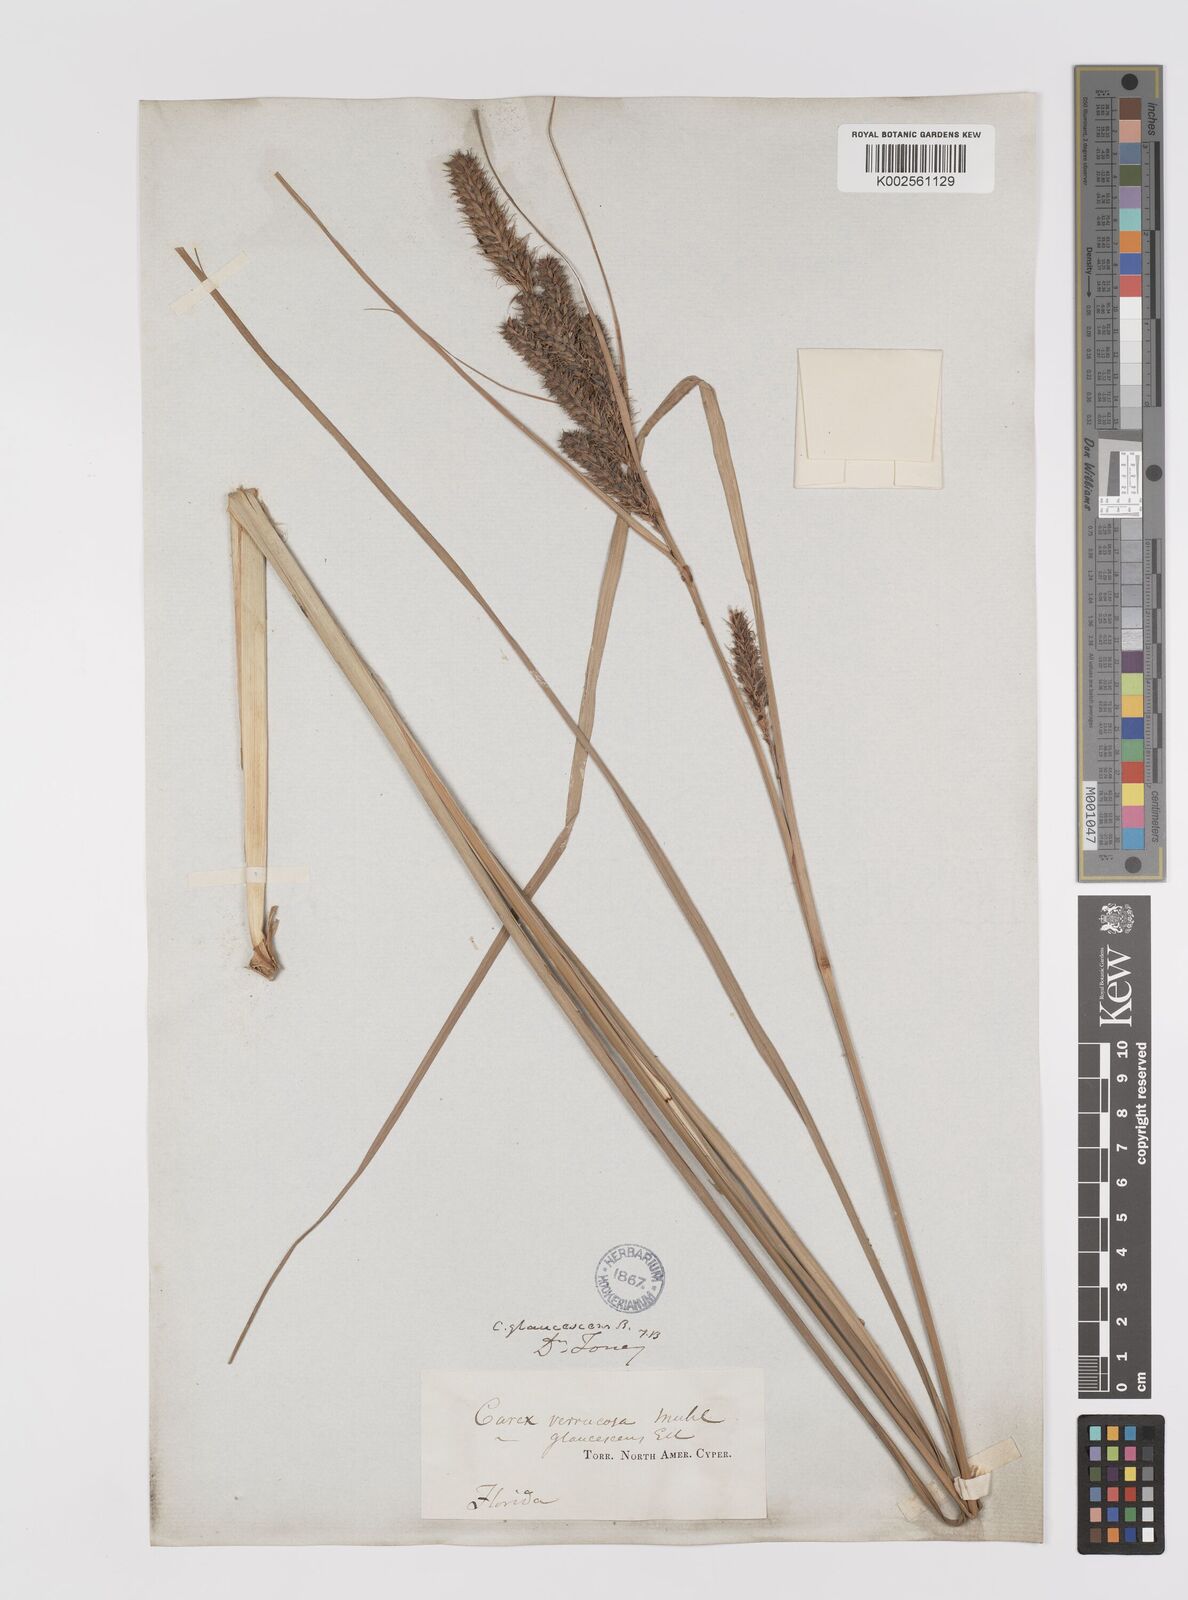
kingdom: Plantae
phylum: Tracheophyta
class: Liliopsida
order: Poales
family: Cyperaceae
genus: Carex
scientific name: Carex glaucescens
